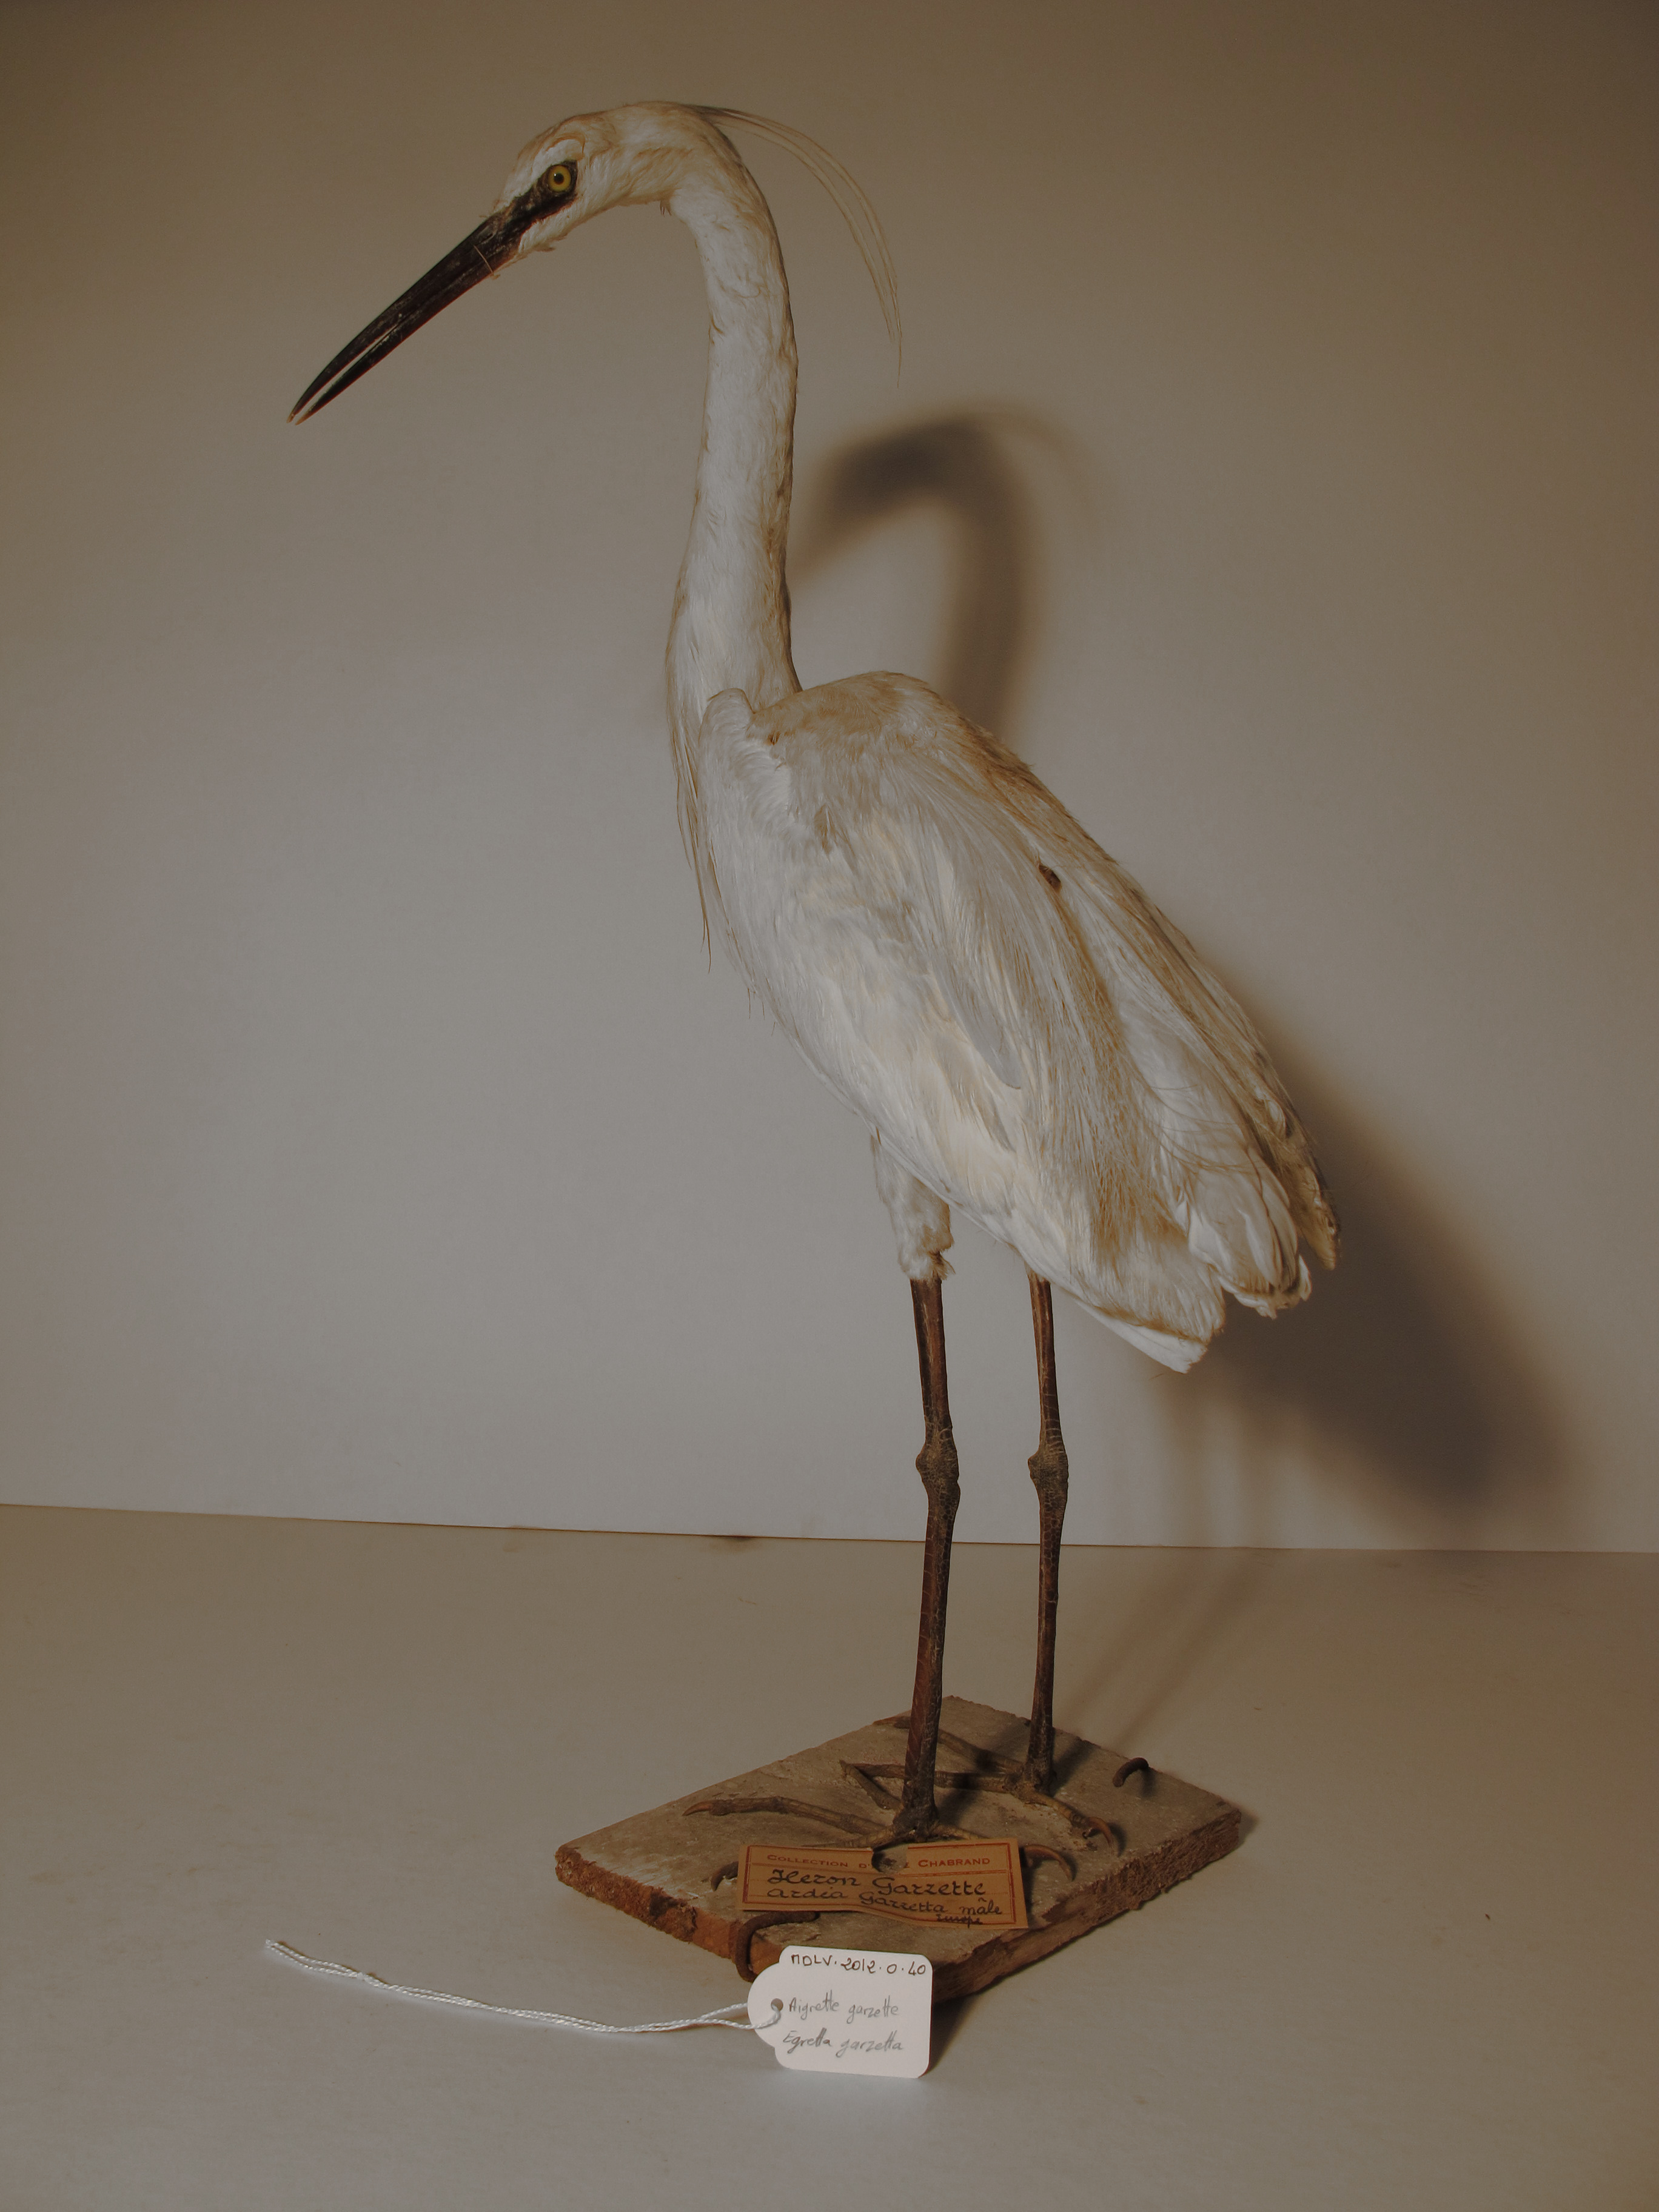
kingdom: Animalia
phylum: Chordata
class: Aves
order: Pelecaniformes
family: Ardeidae
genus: Egretta
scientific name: Egretta garzetta
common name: Little Egret
